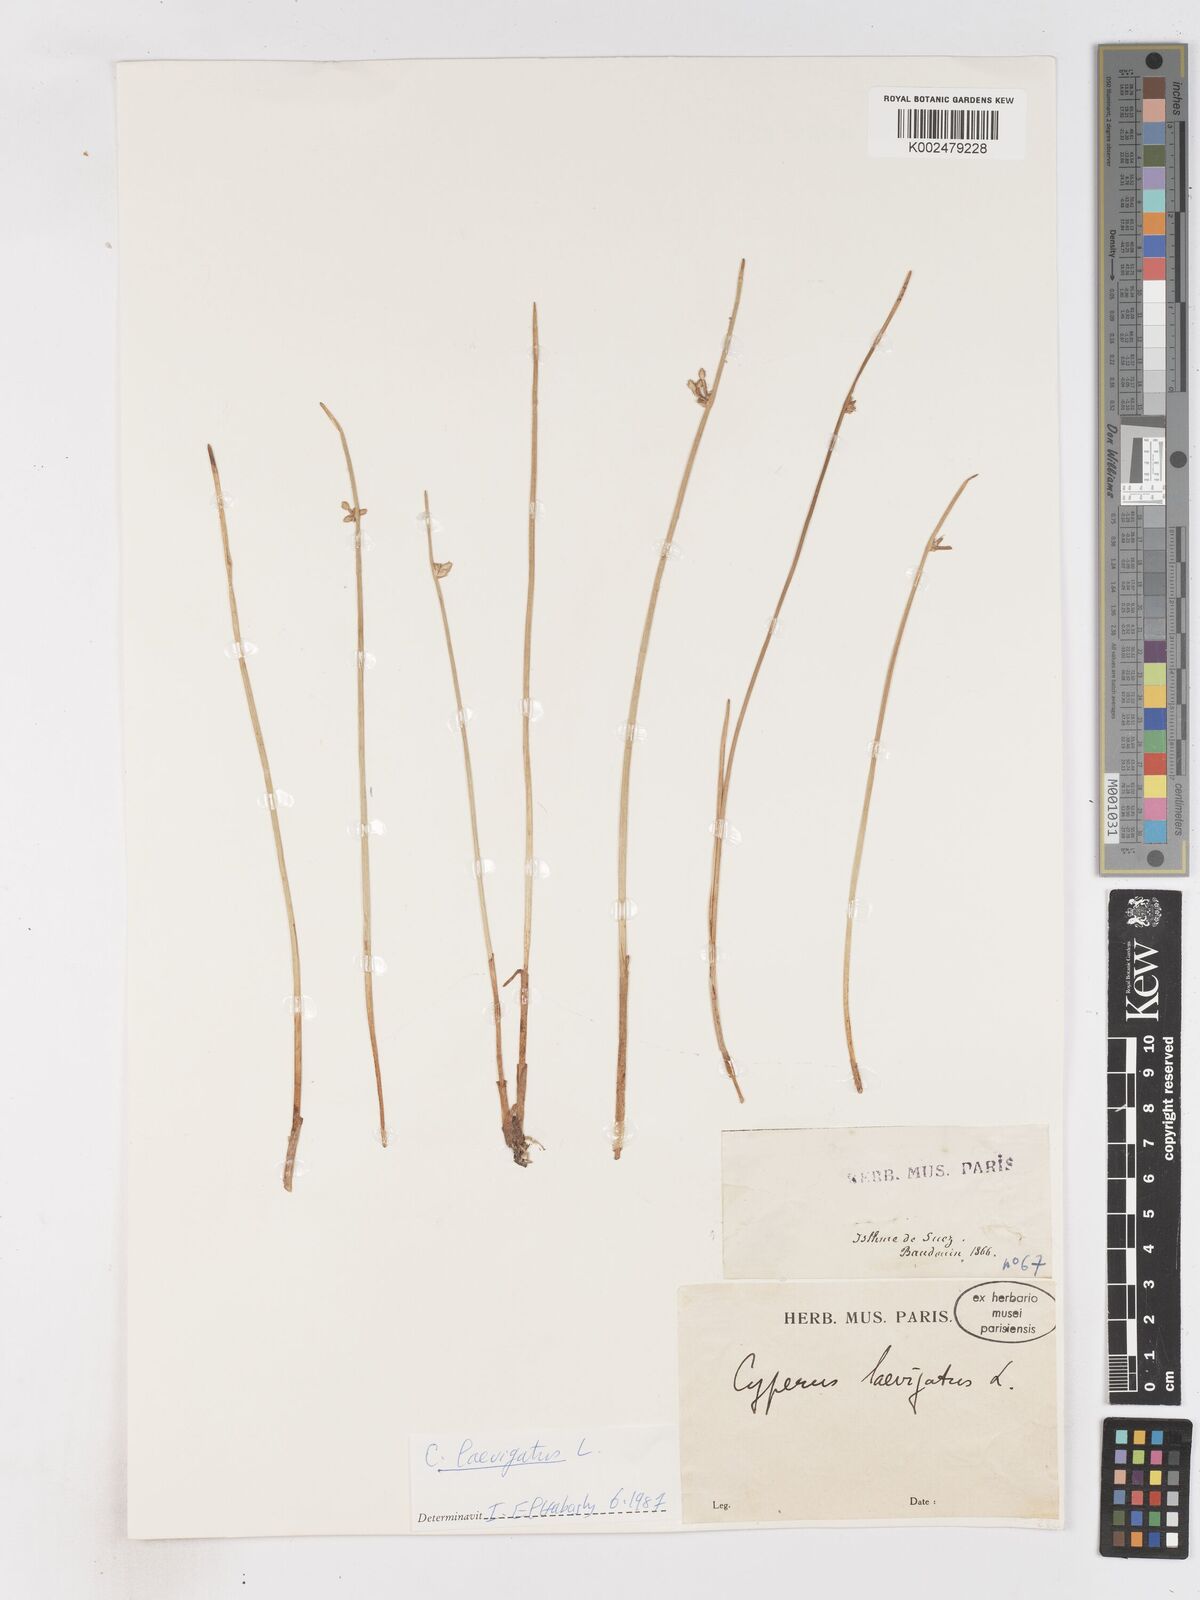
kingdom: Plantae
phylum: Tracheophyta
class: Liliopsida
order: Poales
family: Cyperaceae
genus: Cyperus
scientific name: Cyperus laevigatus
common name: Smooth flat sedge
